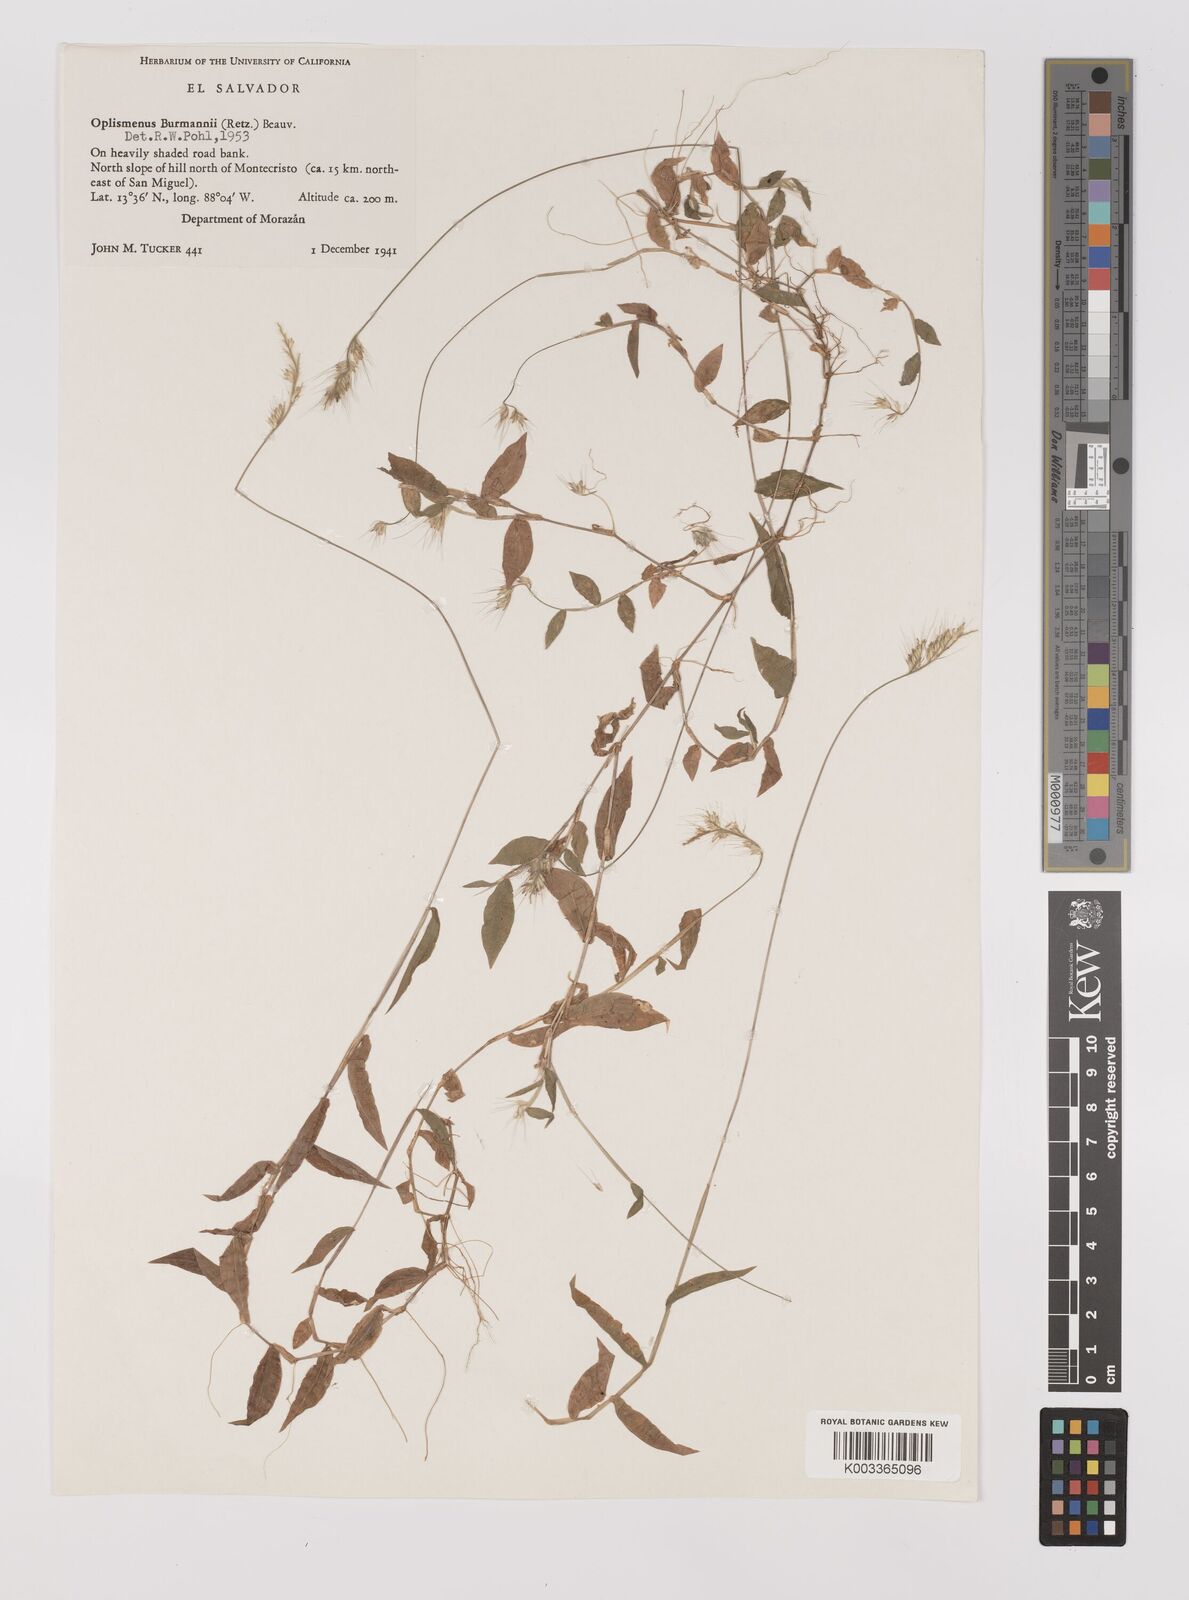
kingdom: Plantae
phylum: Tracheophyta
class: Liliopsida
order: Poales
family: Poaceae
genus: Oplismenus
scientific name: Oplismenus burmanni
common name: Burmann's basketgrass
